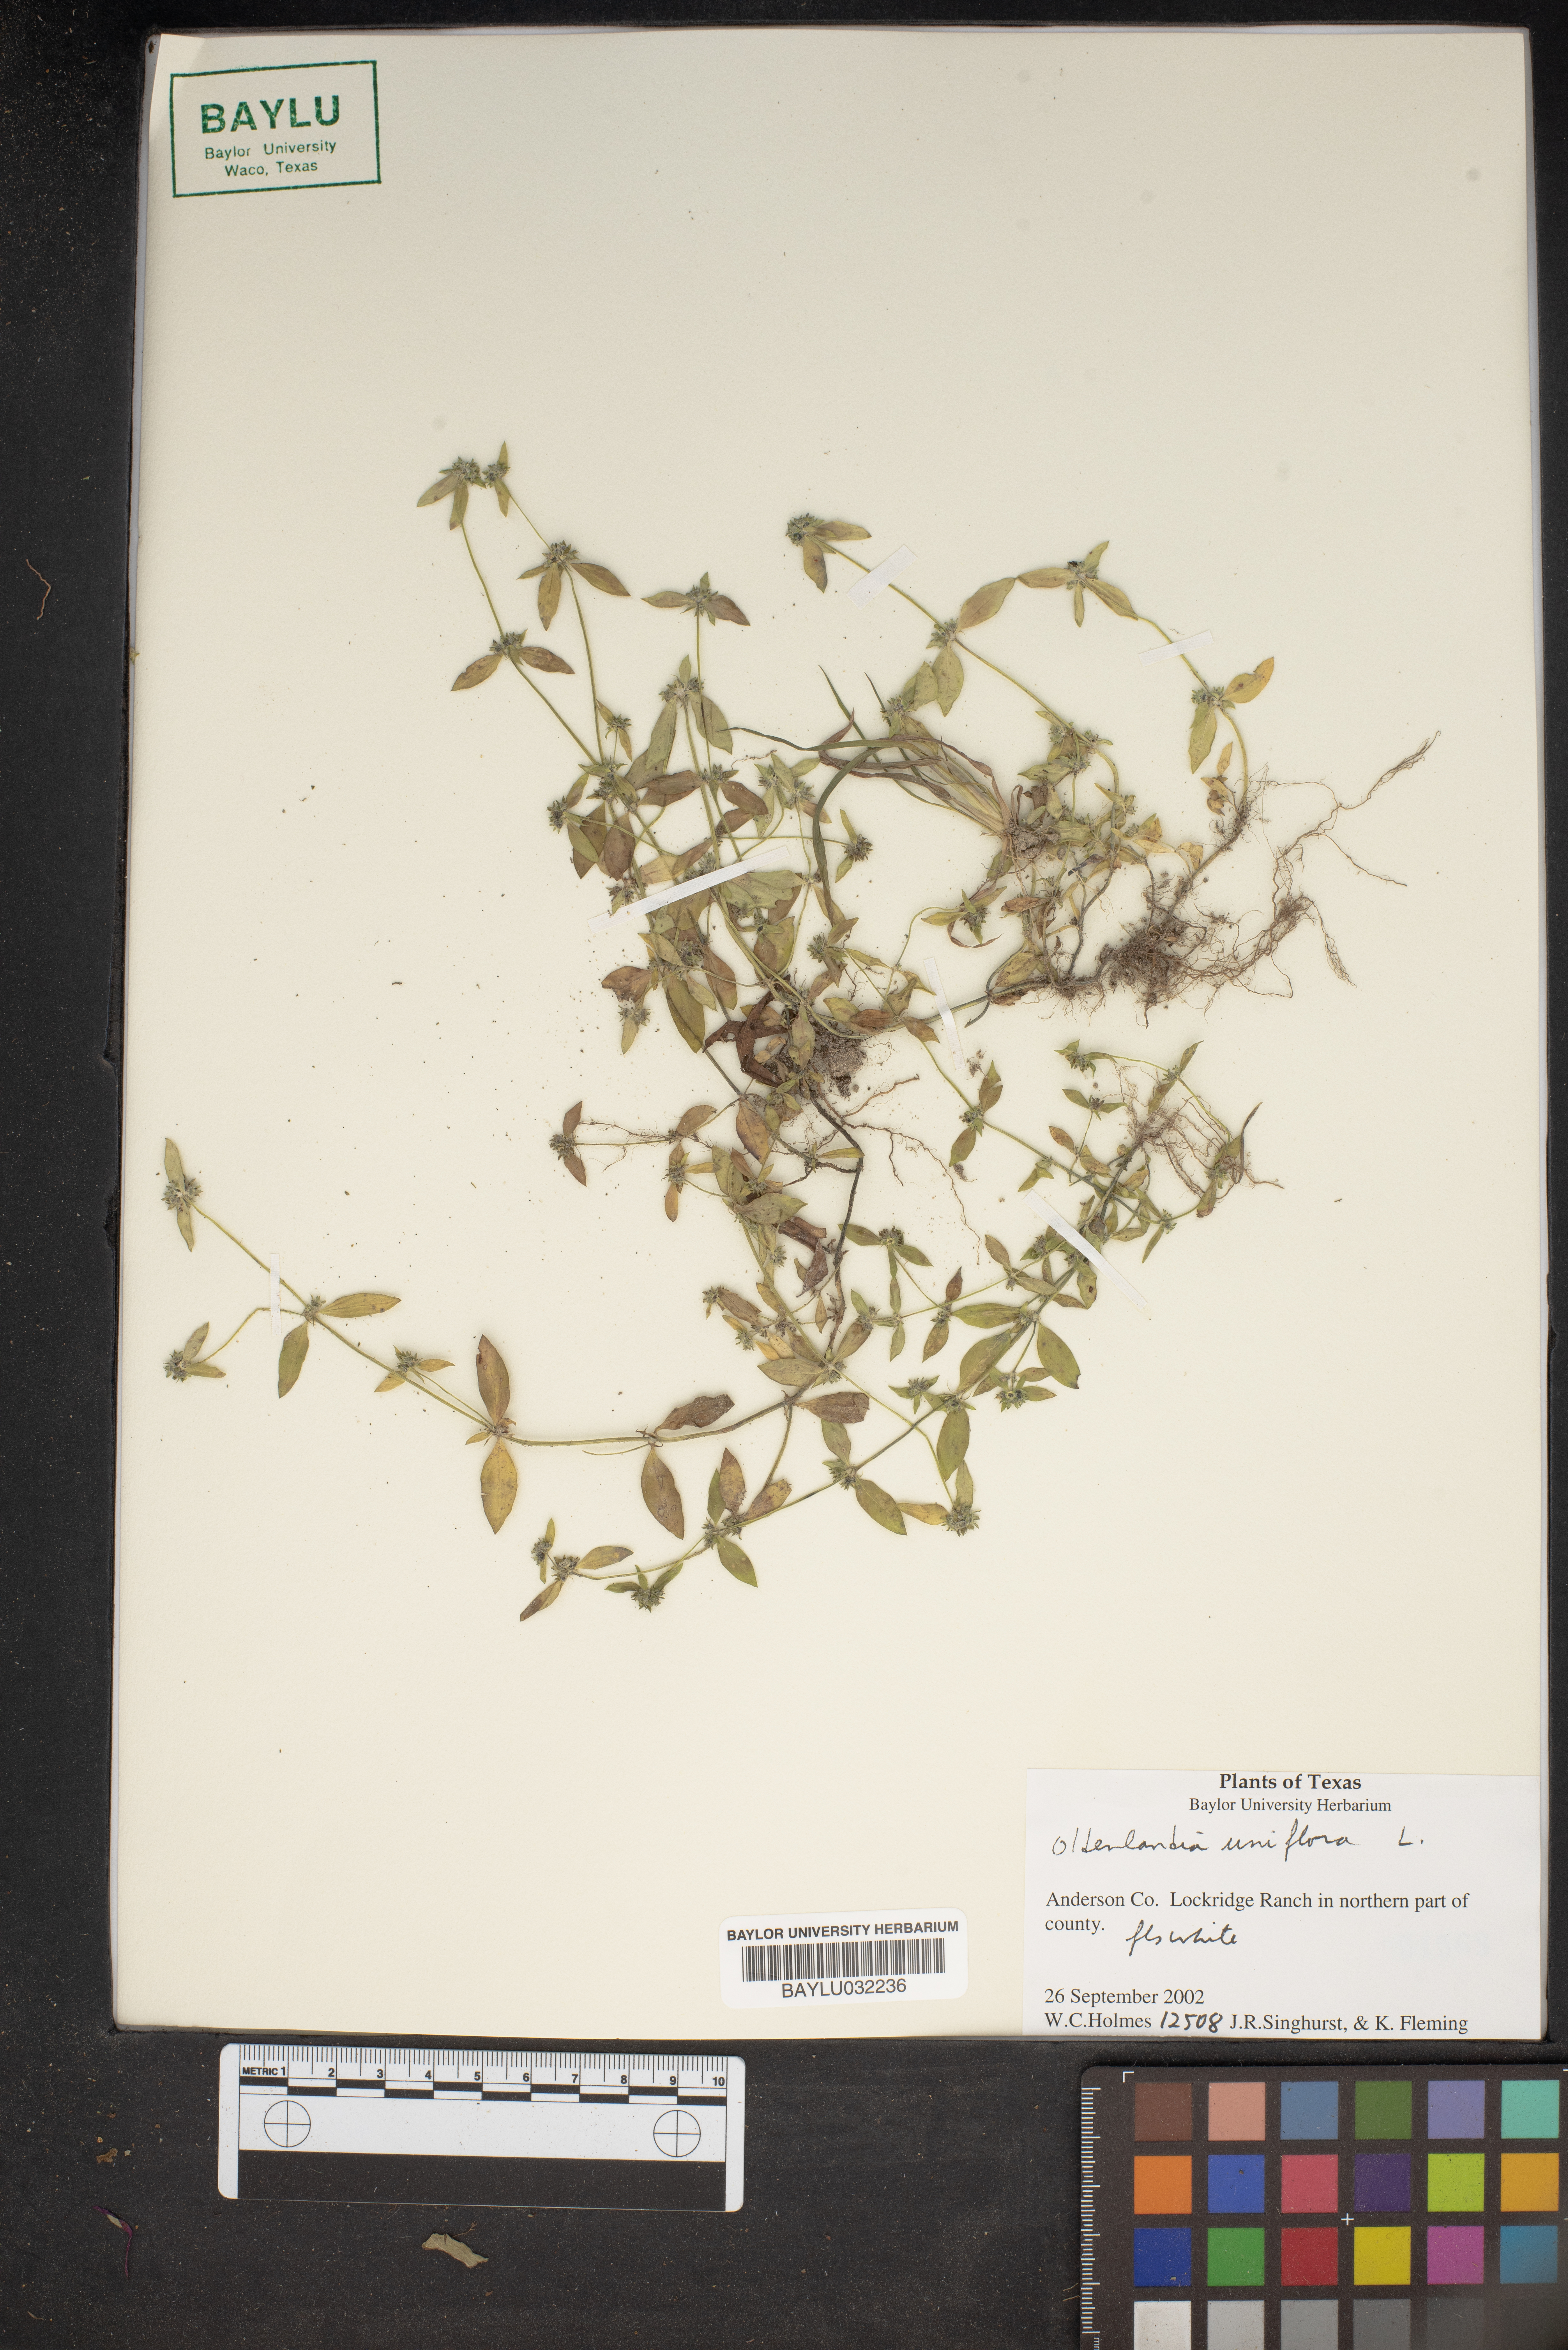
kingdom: Plantae
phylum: Tracheophyta
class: Magnoliopsida
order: Gentianales
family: Rubiaceae
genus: Edrastima
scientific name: Edrastima uniflora
